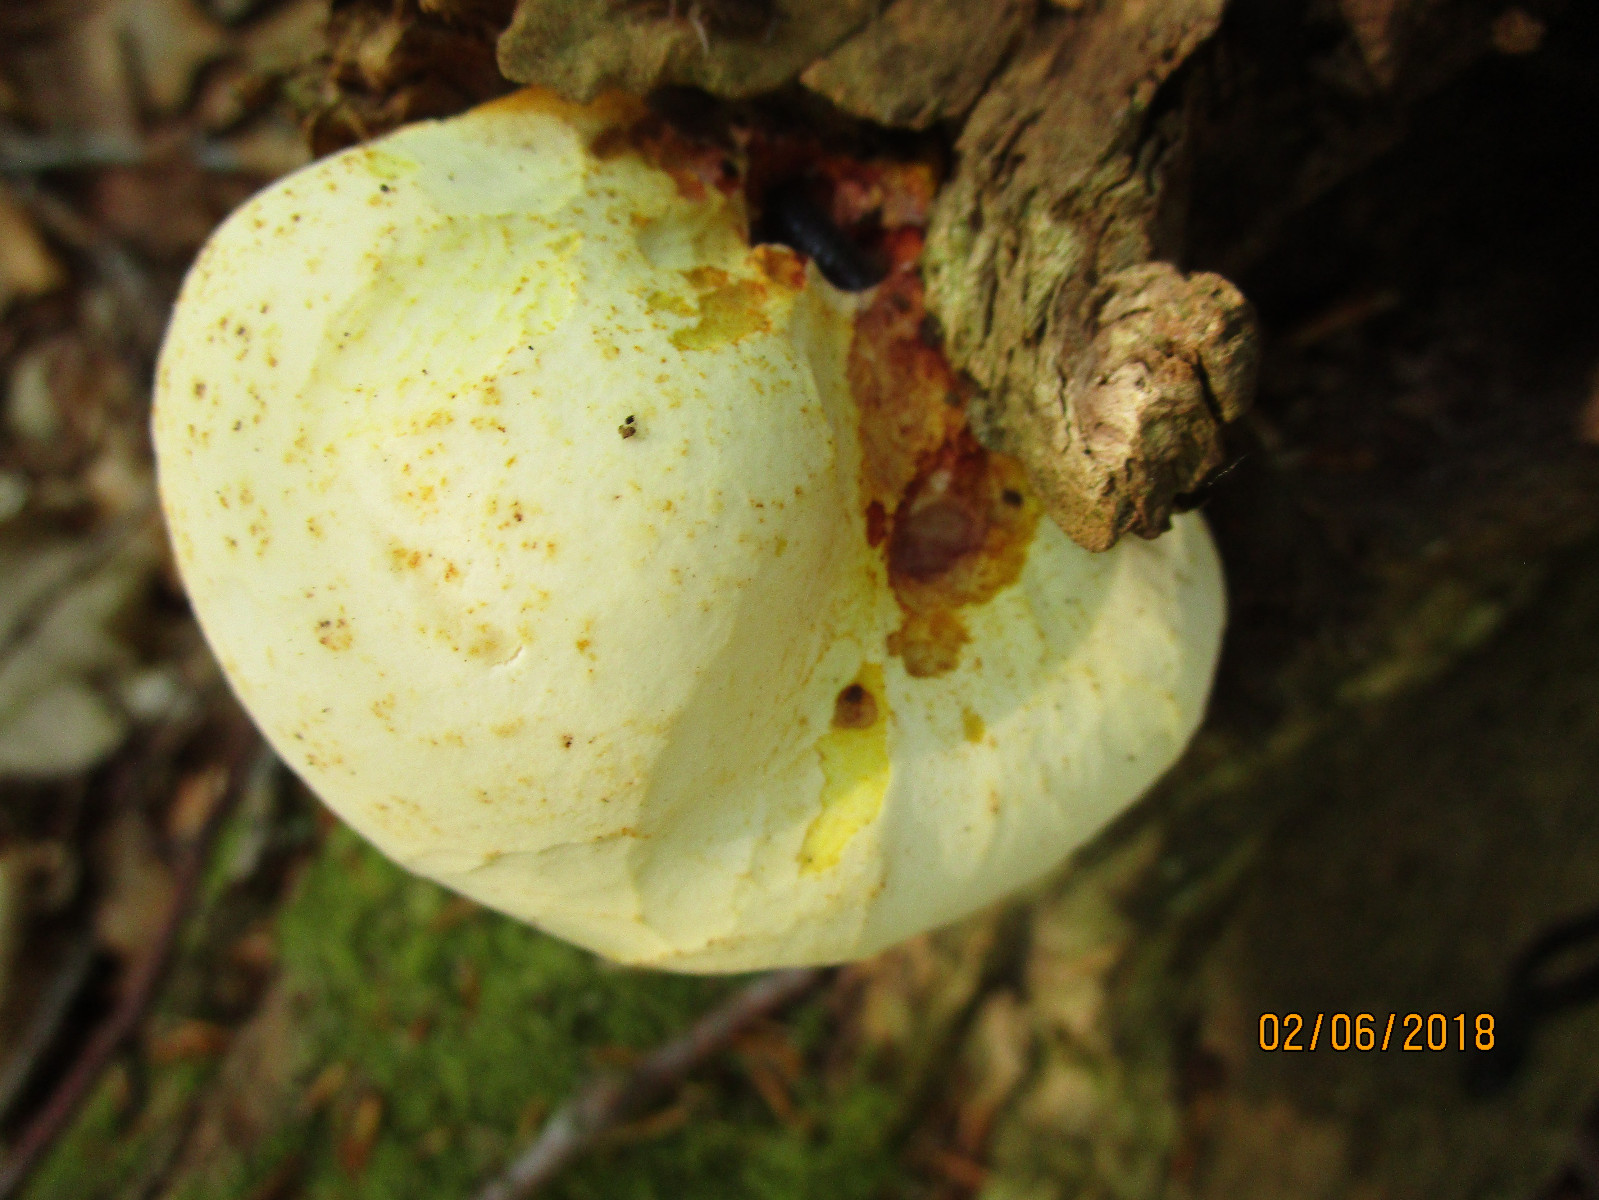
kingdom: Fungi
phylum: Basidiomycota
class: Agaricomycetes
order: Polyporales
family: Fomitopsidaceae
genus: Buglossoporus
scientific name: Buglossoporus quercinus
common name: egetunge
